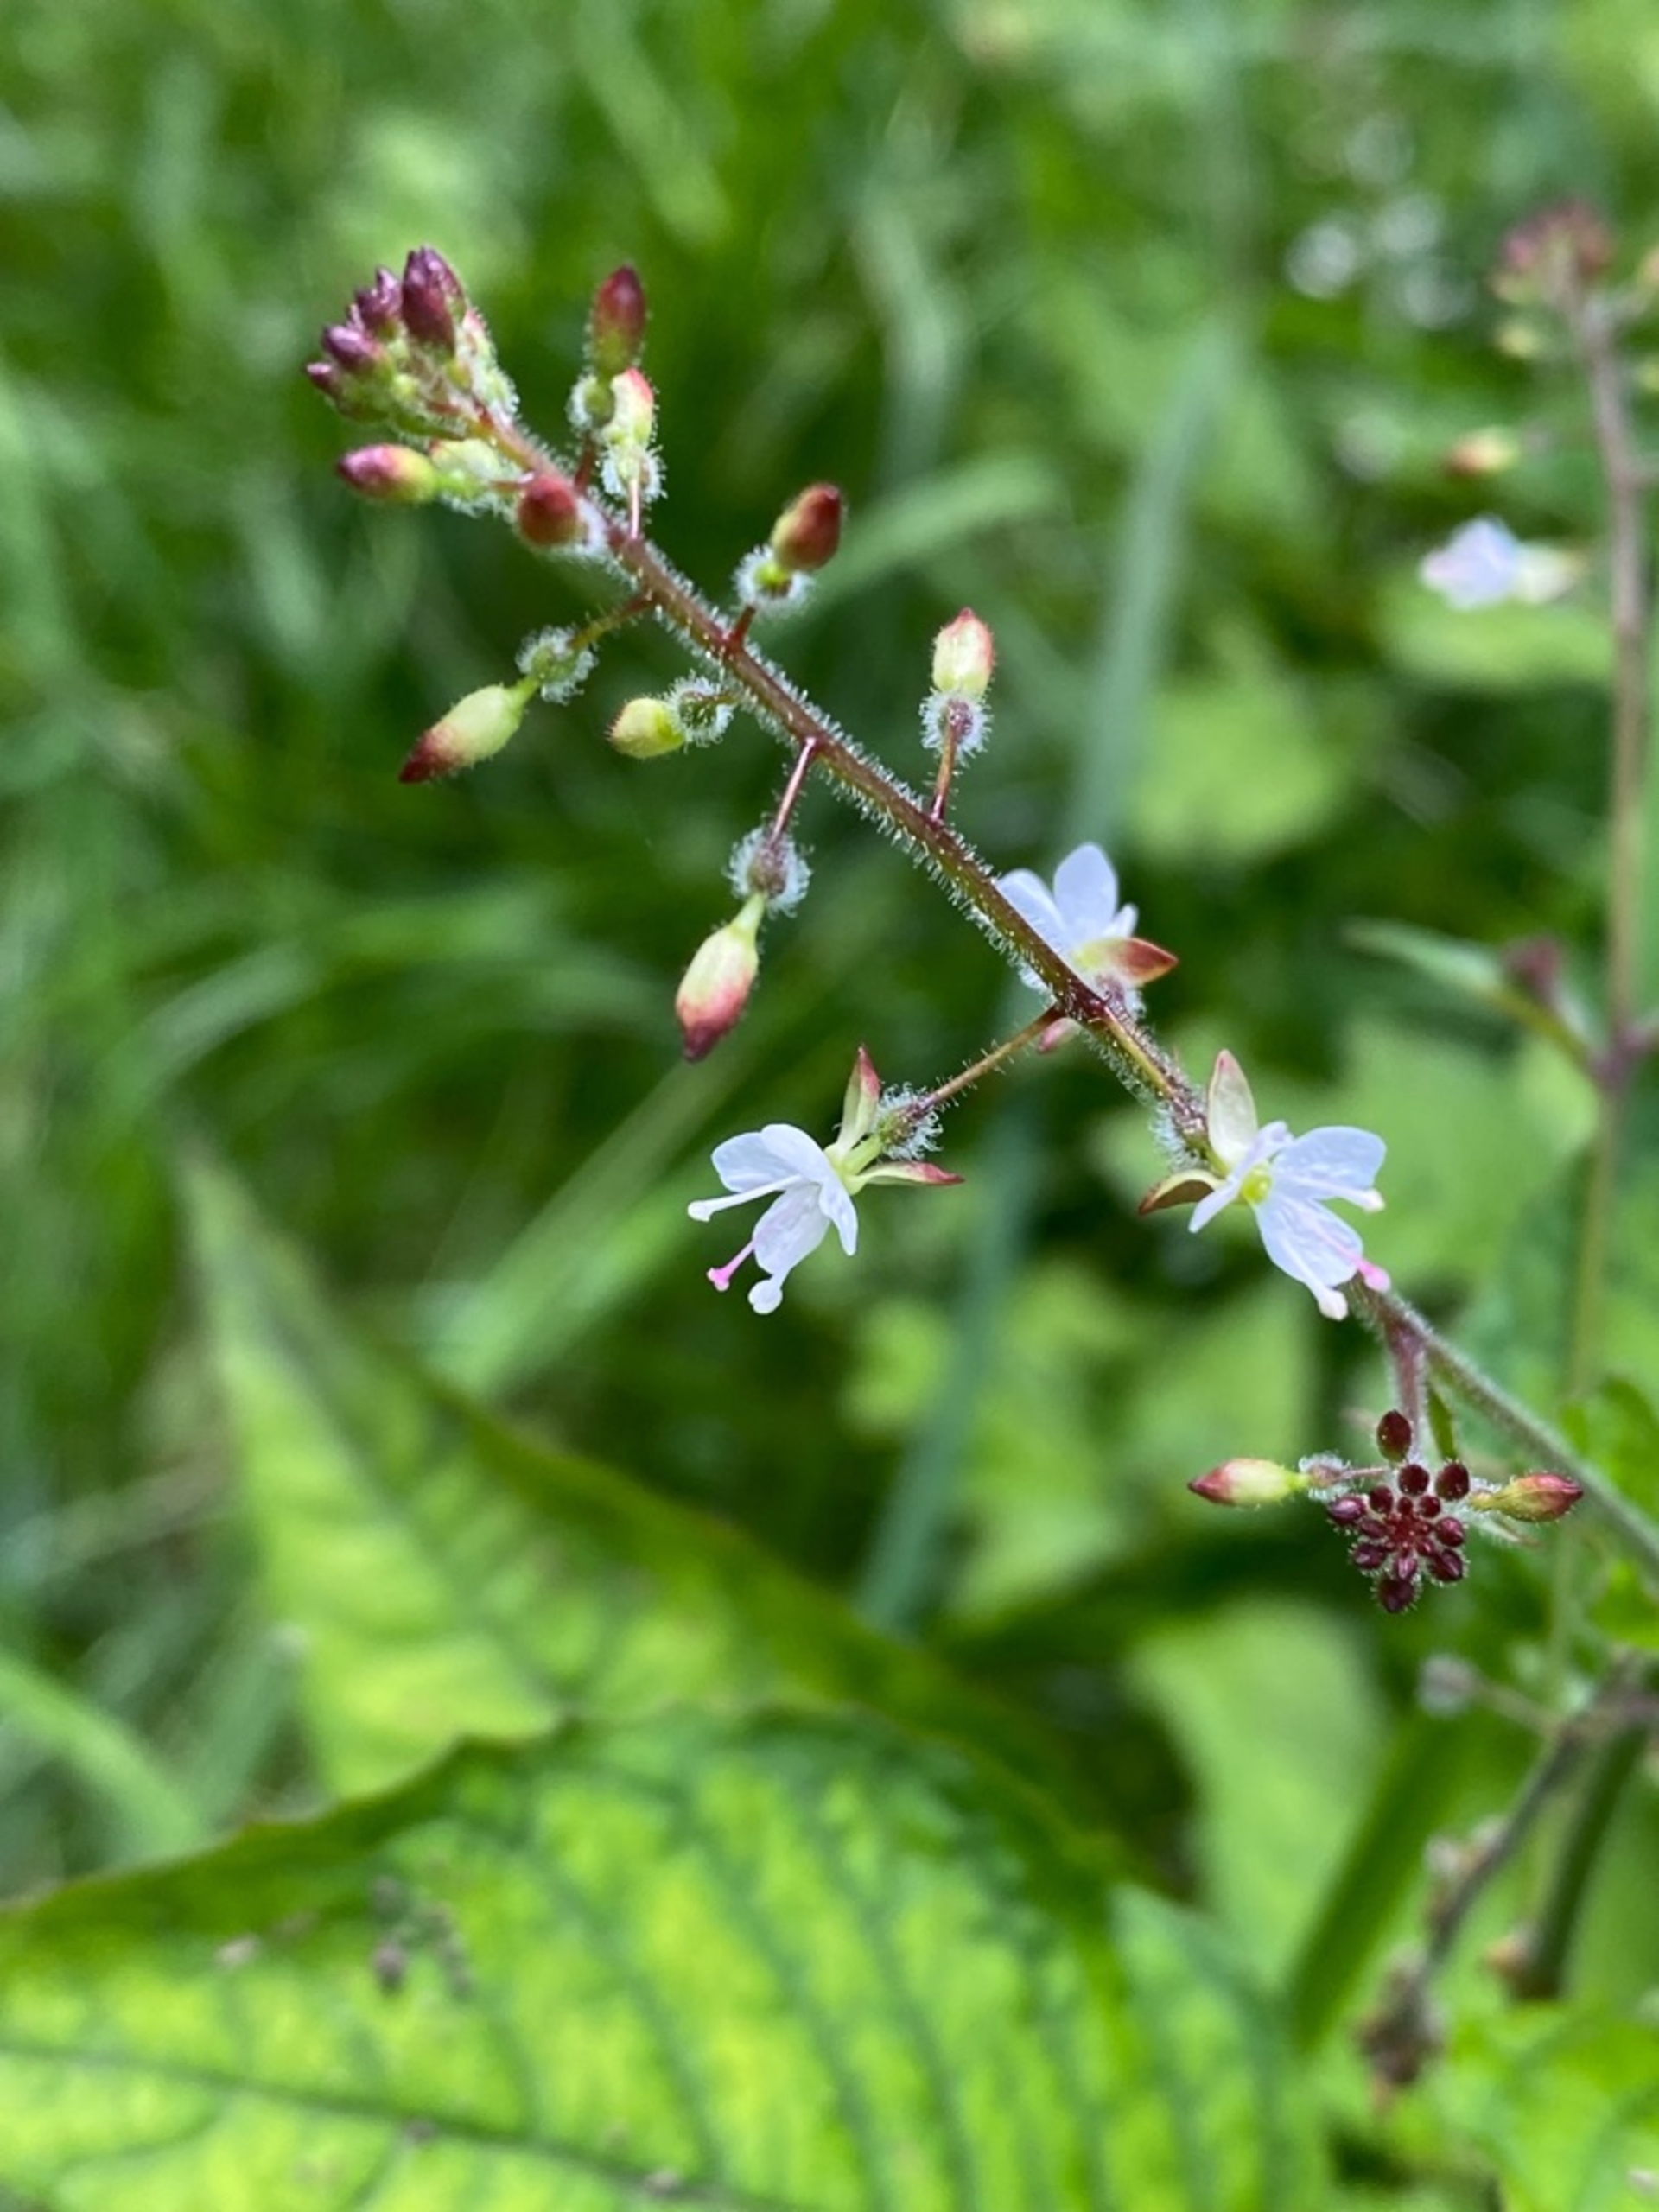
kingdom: Plantae
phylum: Tracheophyta
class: Magnoliopsida
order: Myrtales
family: Onagraceae
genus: Circaea
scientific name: Circaea lutetiana
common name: Dunet steffensurt
